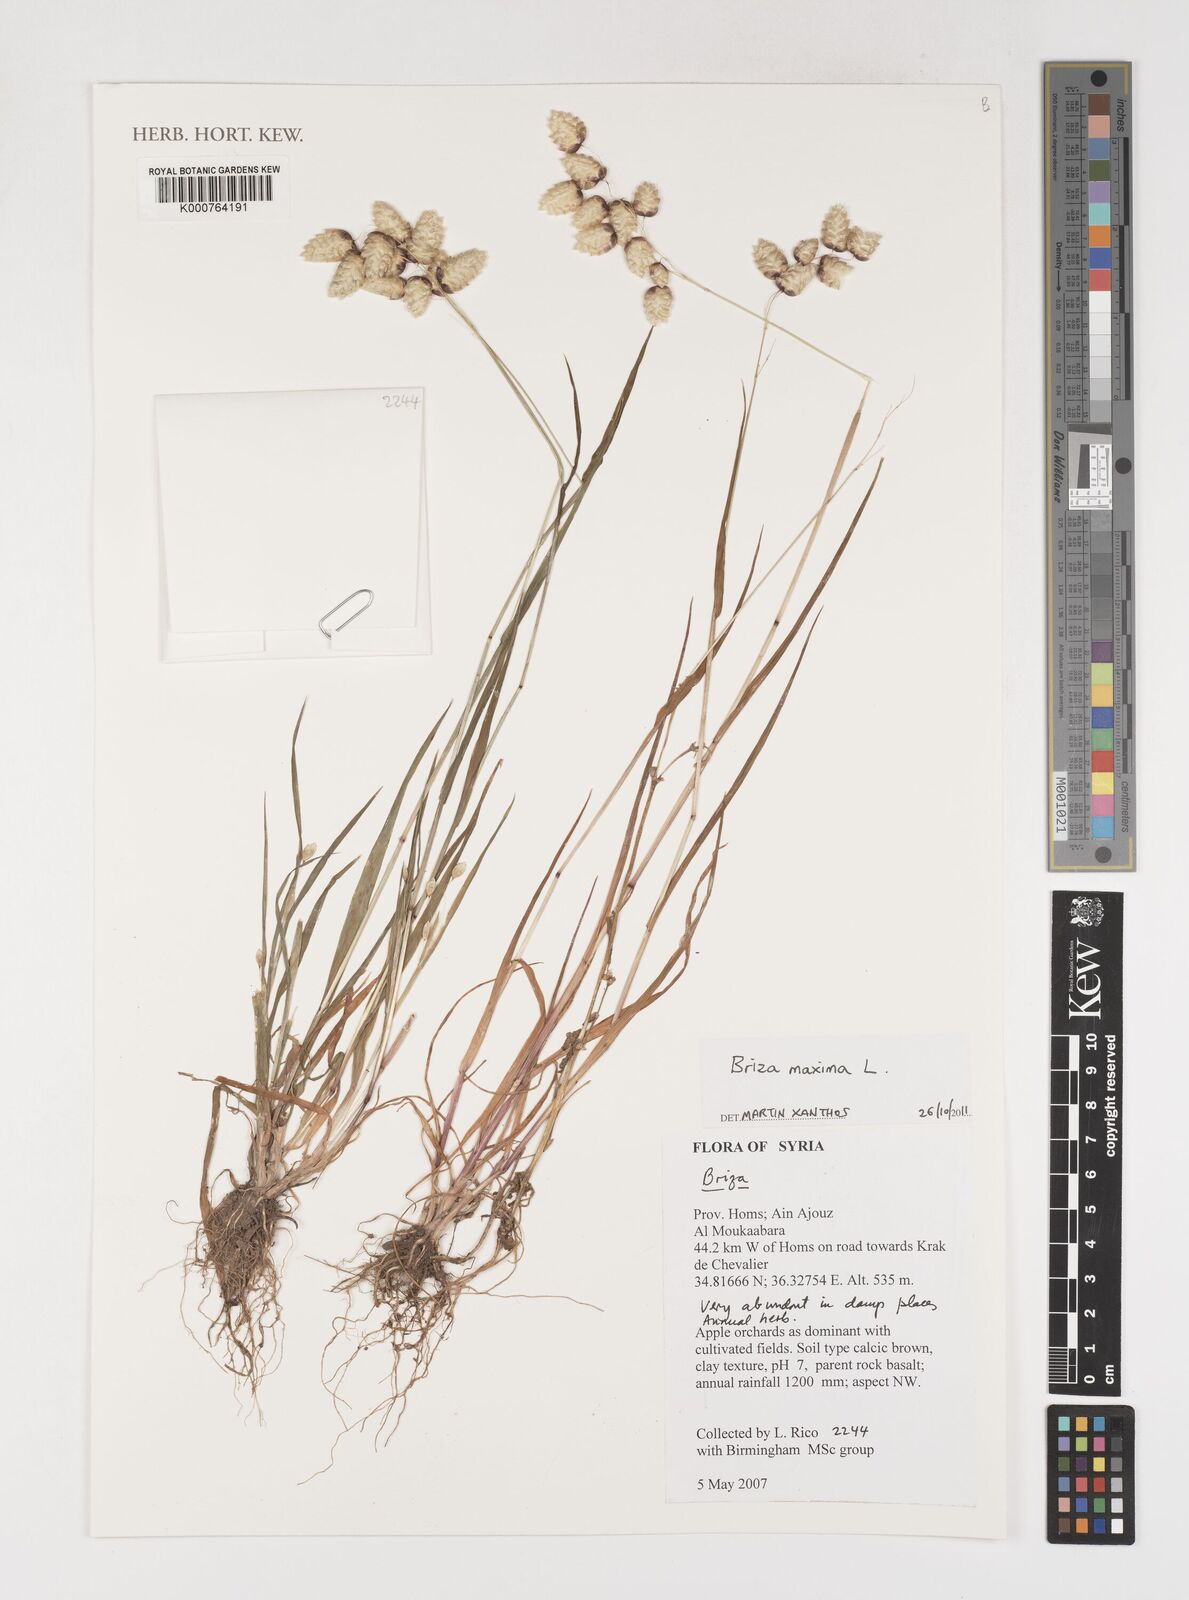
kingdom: Plantae
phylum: Tracheophyta
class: Liliopsida
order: Poales
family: Poaceae
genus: Briza
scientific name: Briza maxima
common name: Big quakinggrass
